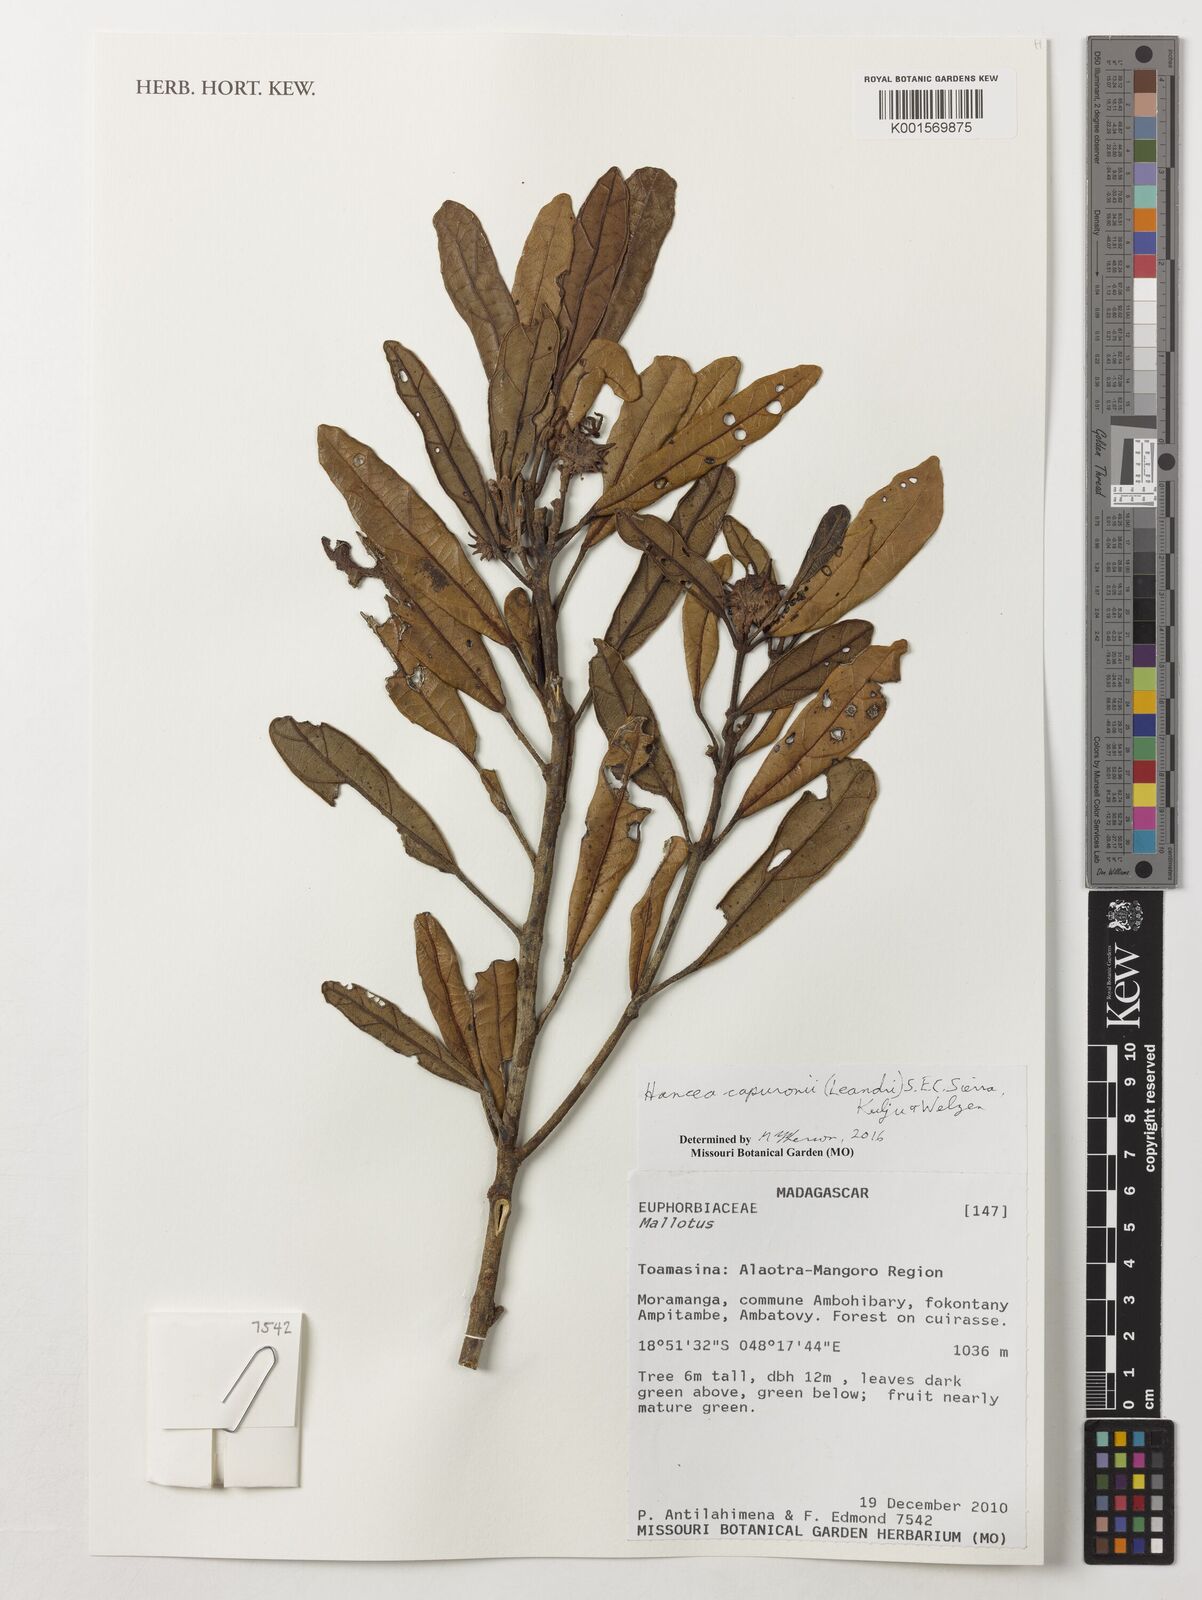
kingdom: Plantae
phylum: Tracheophyta
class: Magnoliopsida
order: Malpighiales
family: Euphorbiaceae
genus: Hancea
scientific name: Hancea capuronii
